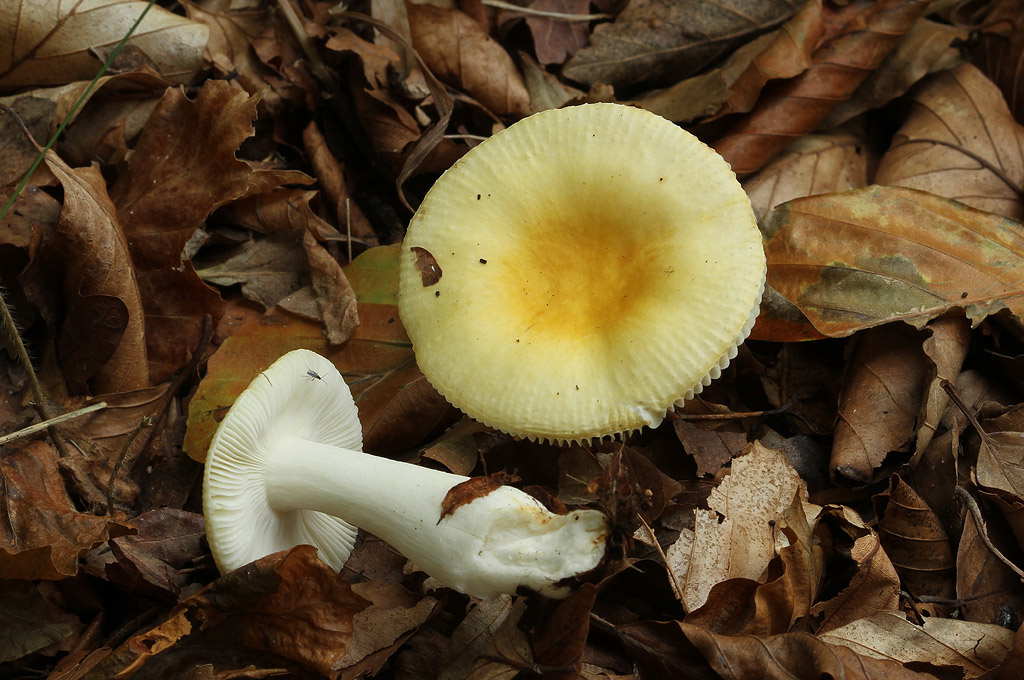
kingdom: Fungi
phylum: Basidiomycota
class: Agaricomycetes
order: Russulales
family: Russulaceae
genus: Russula
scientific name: Russula solaris
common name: sol-skørhat
